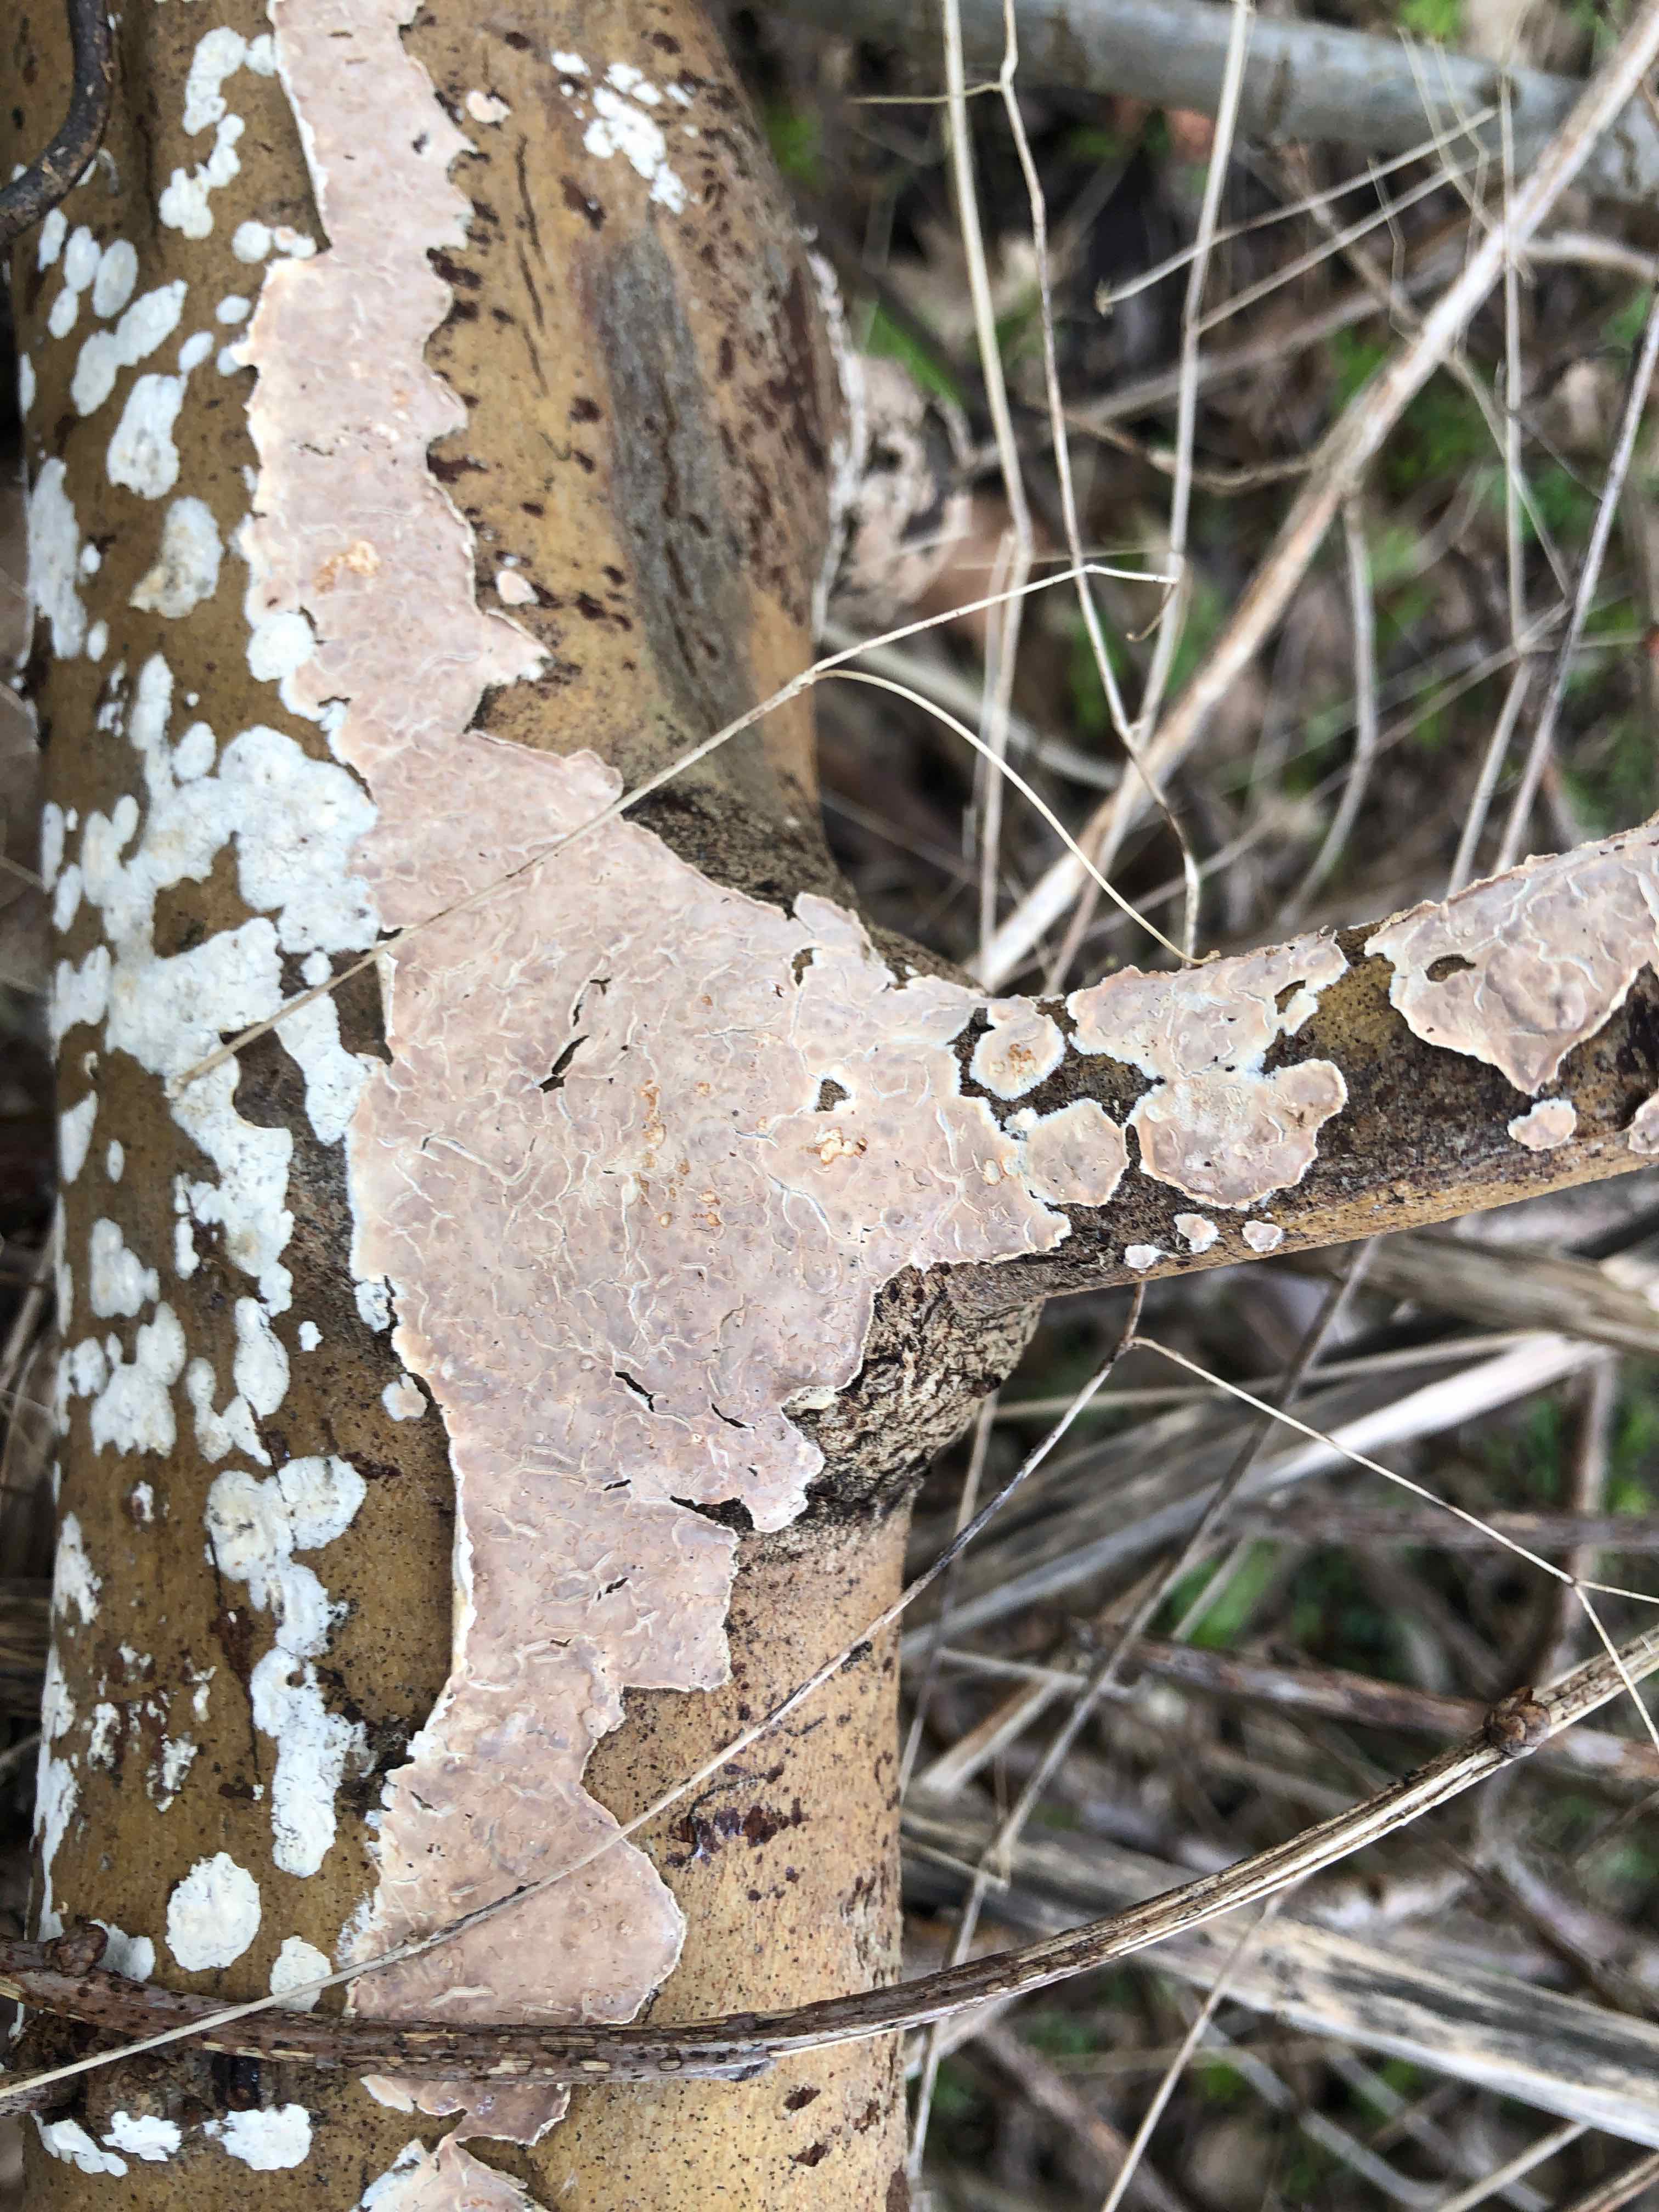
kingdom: Fungi
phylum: Basidiomycota
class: Agaricomycetes
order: Agaricales
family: Physalacriaceae
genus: Cylindrobasidium
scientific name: Cylindrobasidium evolvens
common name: sprækkehinde
